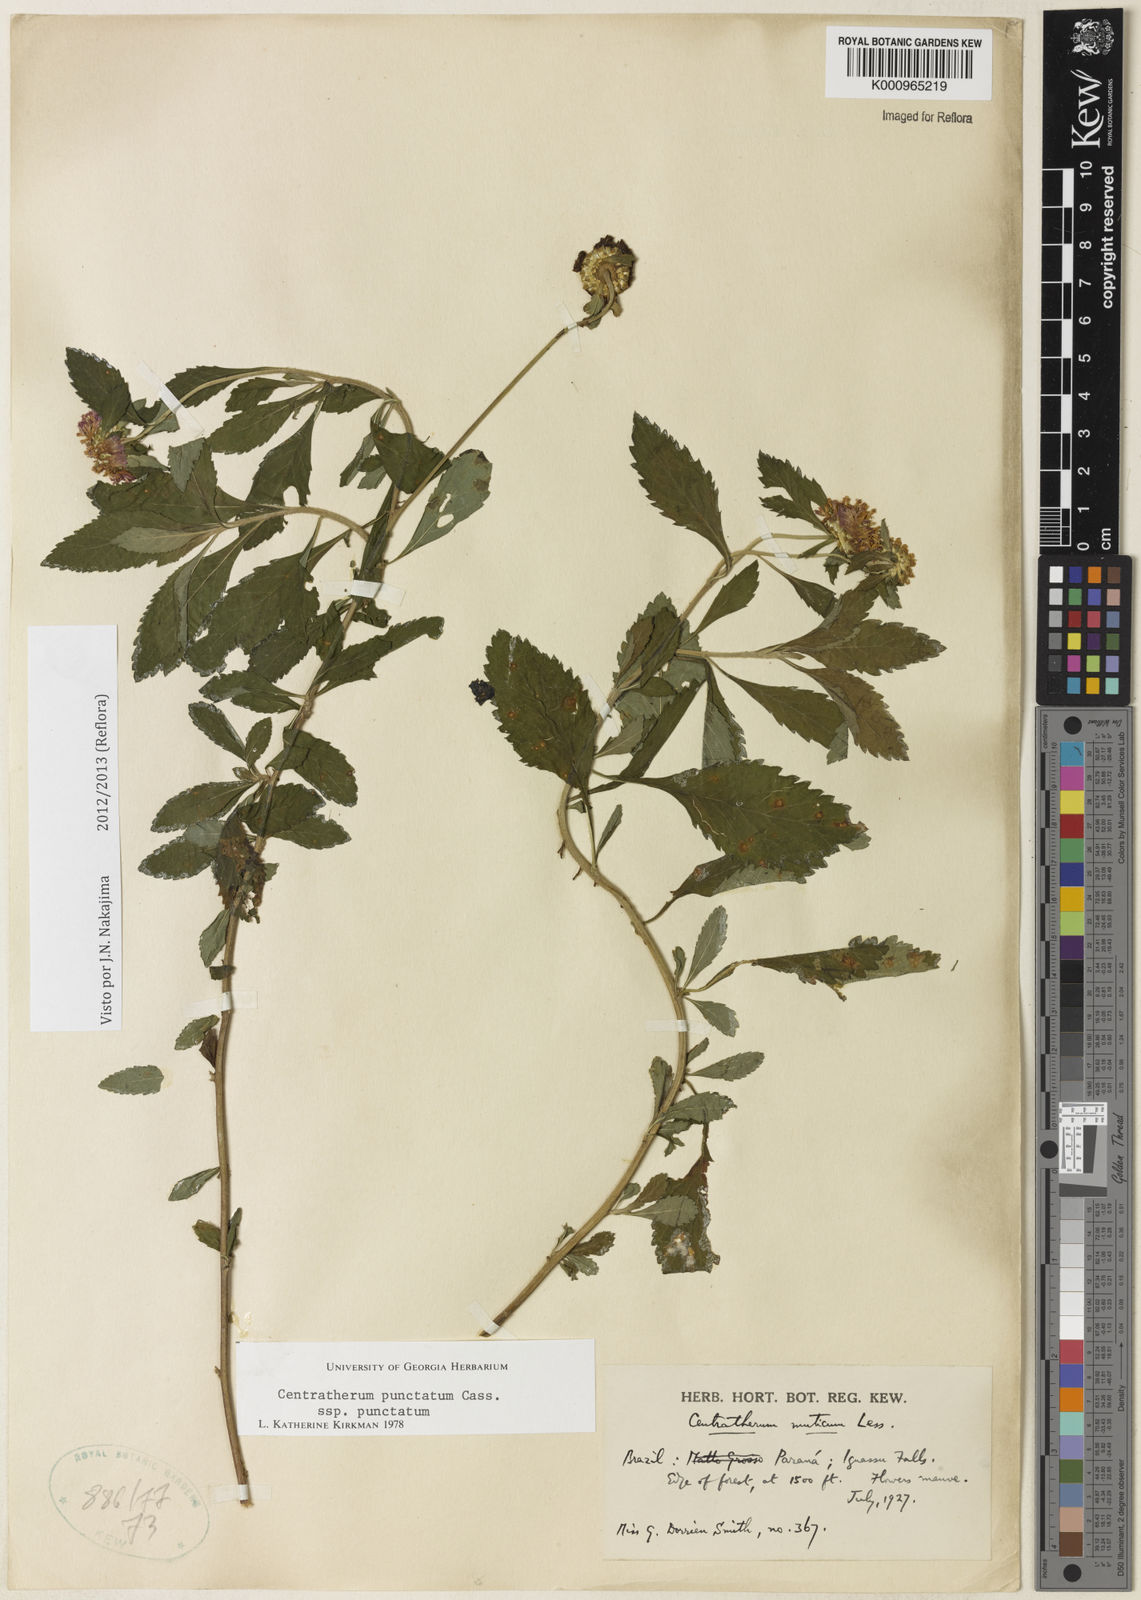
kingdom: Plantae
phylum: Tracheophyta
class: Magnoliopsida
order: Asterales
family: Asteraceae
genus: Centratherum
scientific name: Centratherum punctatum
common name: Larkdaisy
